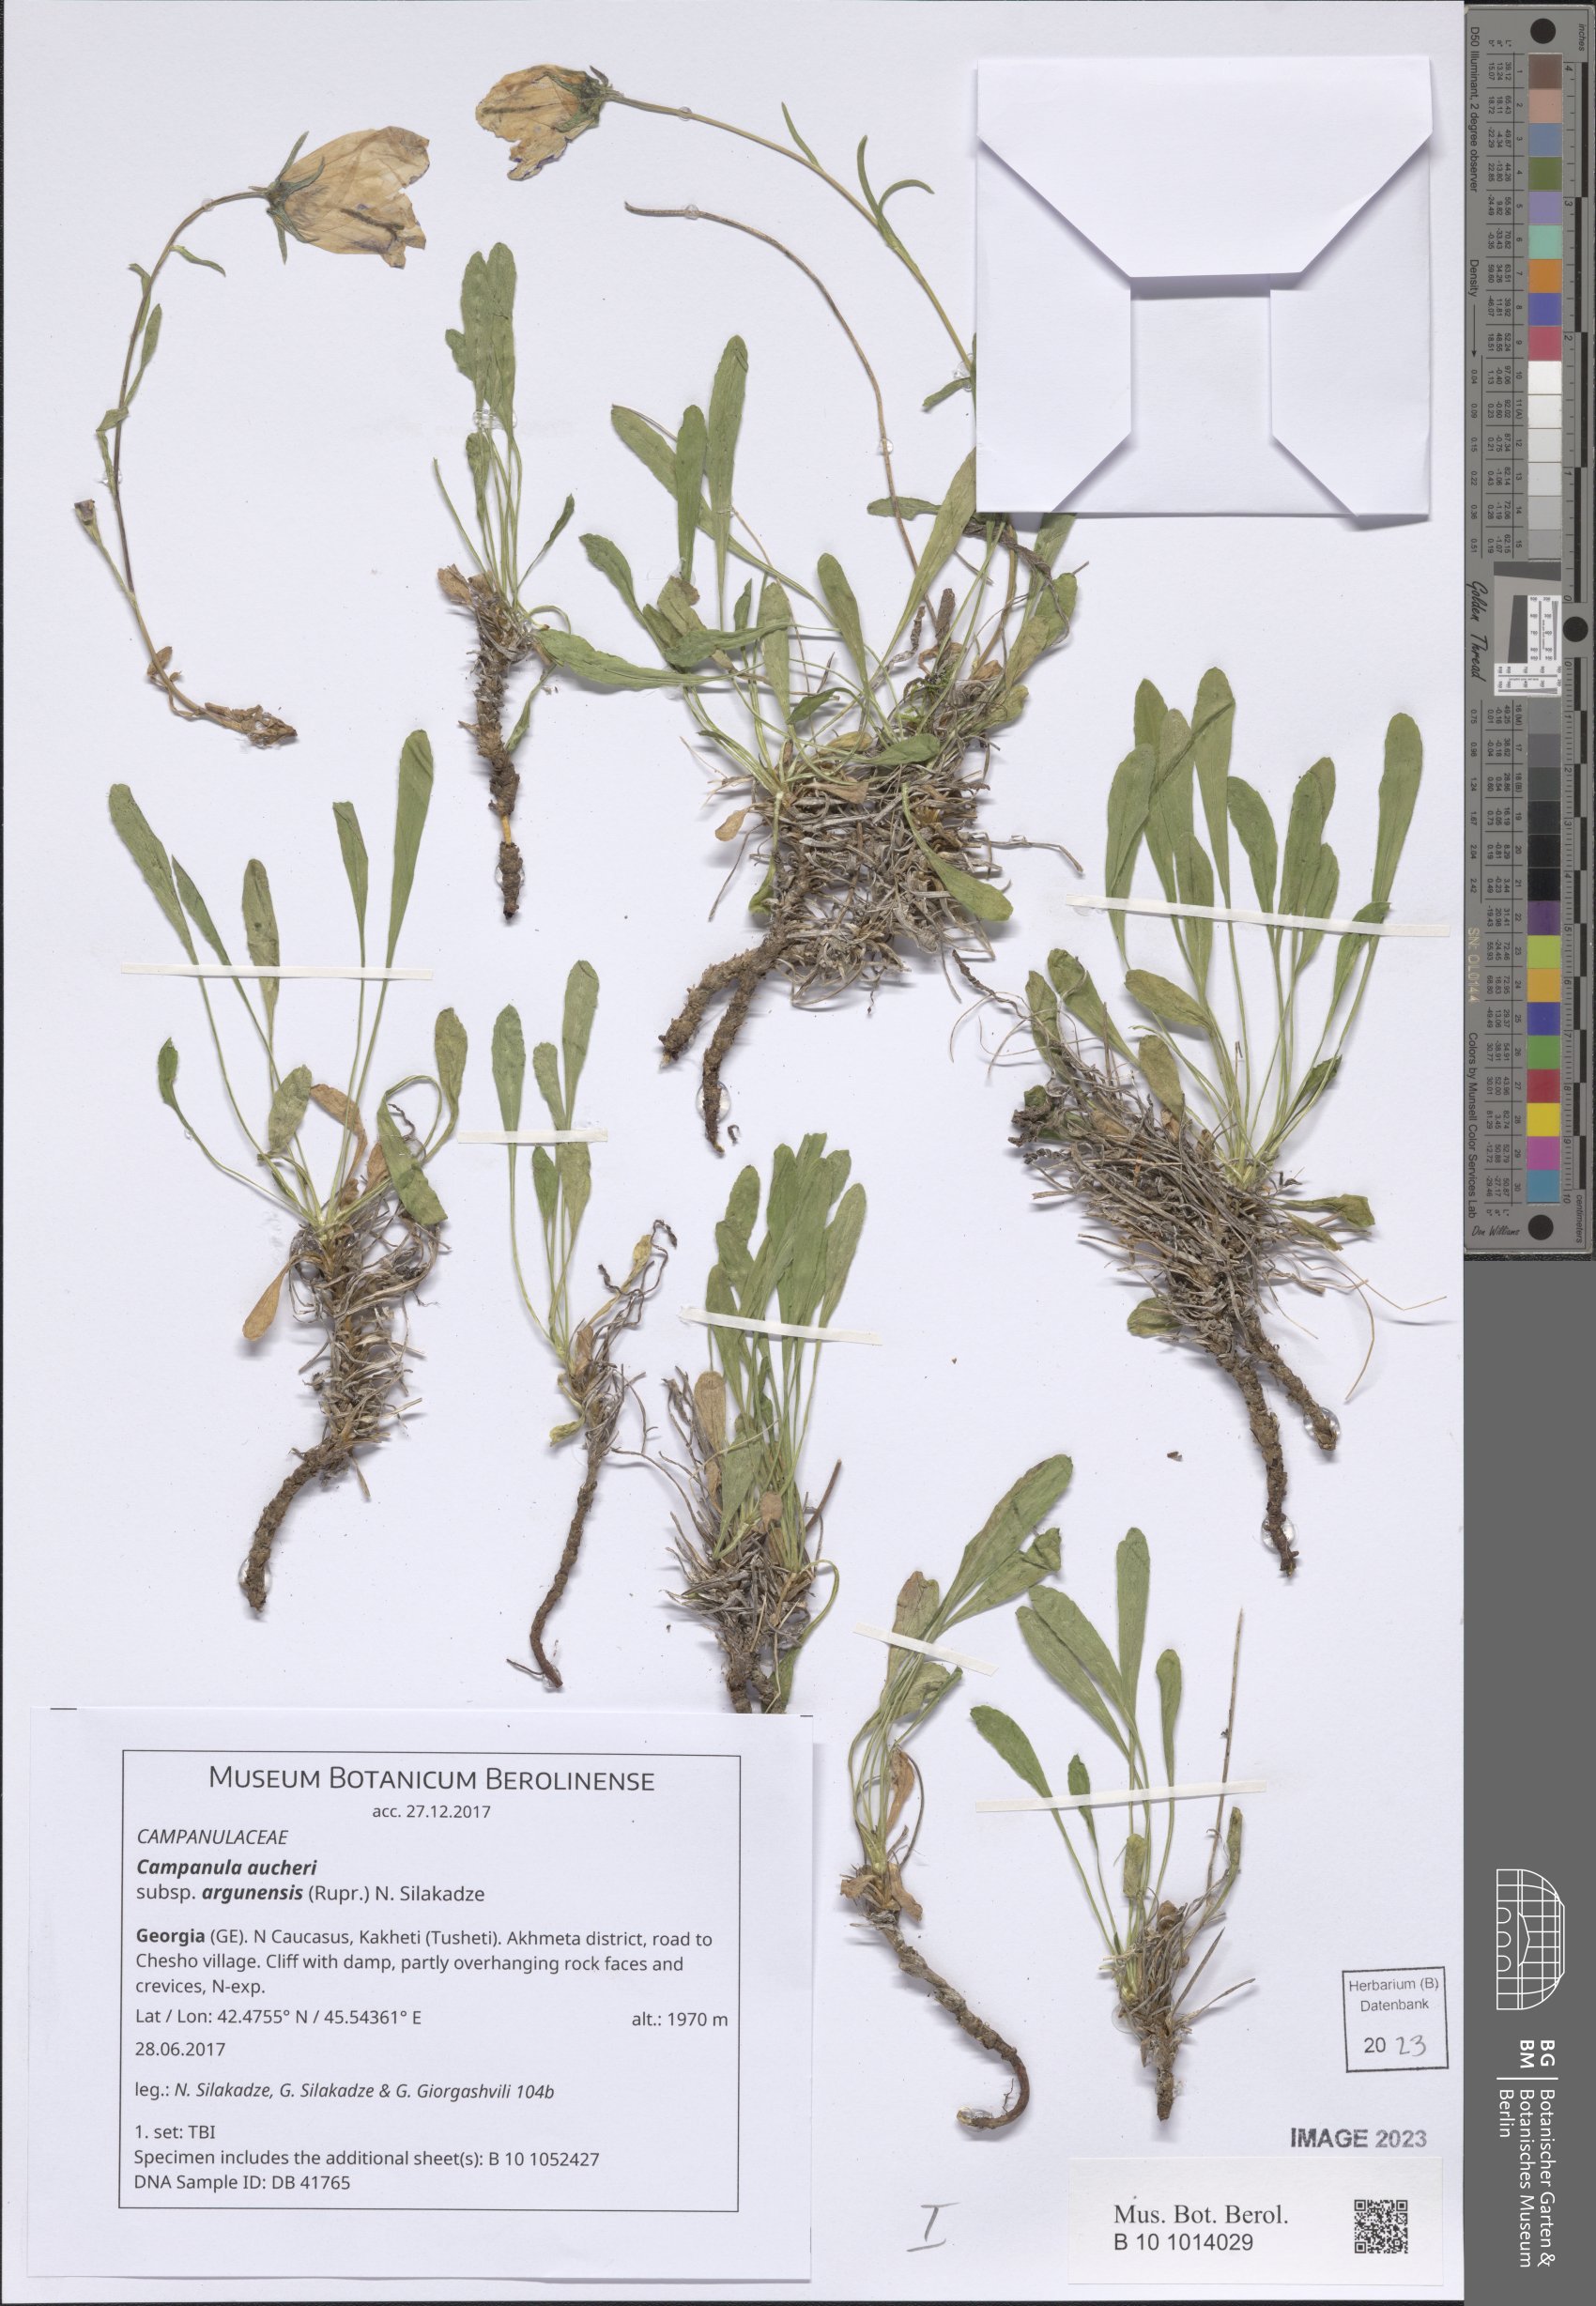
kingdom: Plantae
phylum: Tracheophyta
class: Magnoliopsida
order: Asterales
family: Campanulaceae
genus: Campanula
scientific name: Campanula saxifraga
